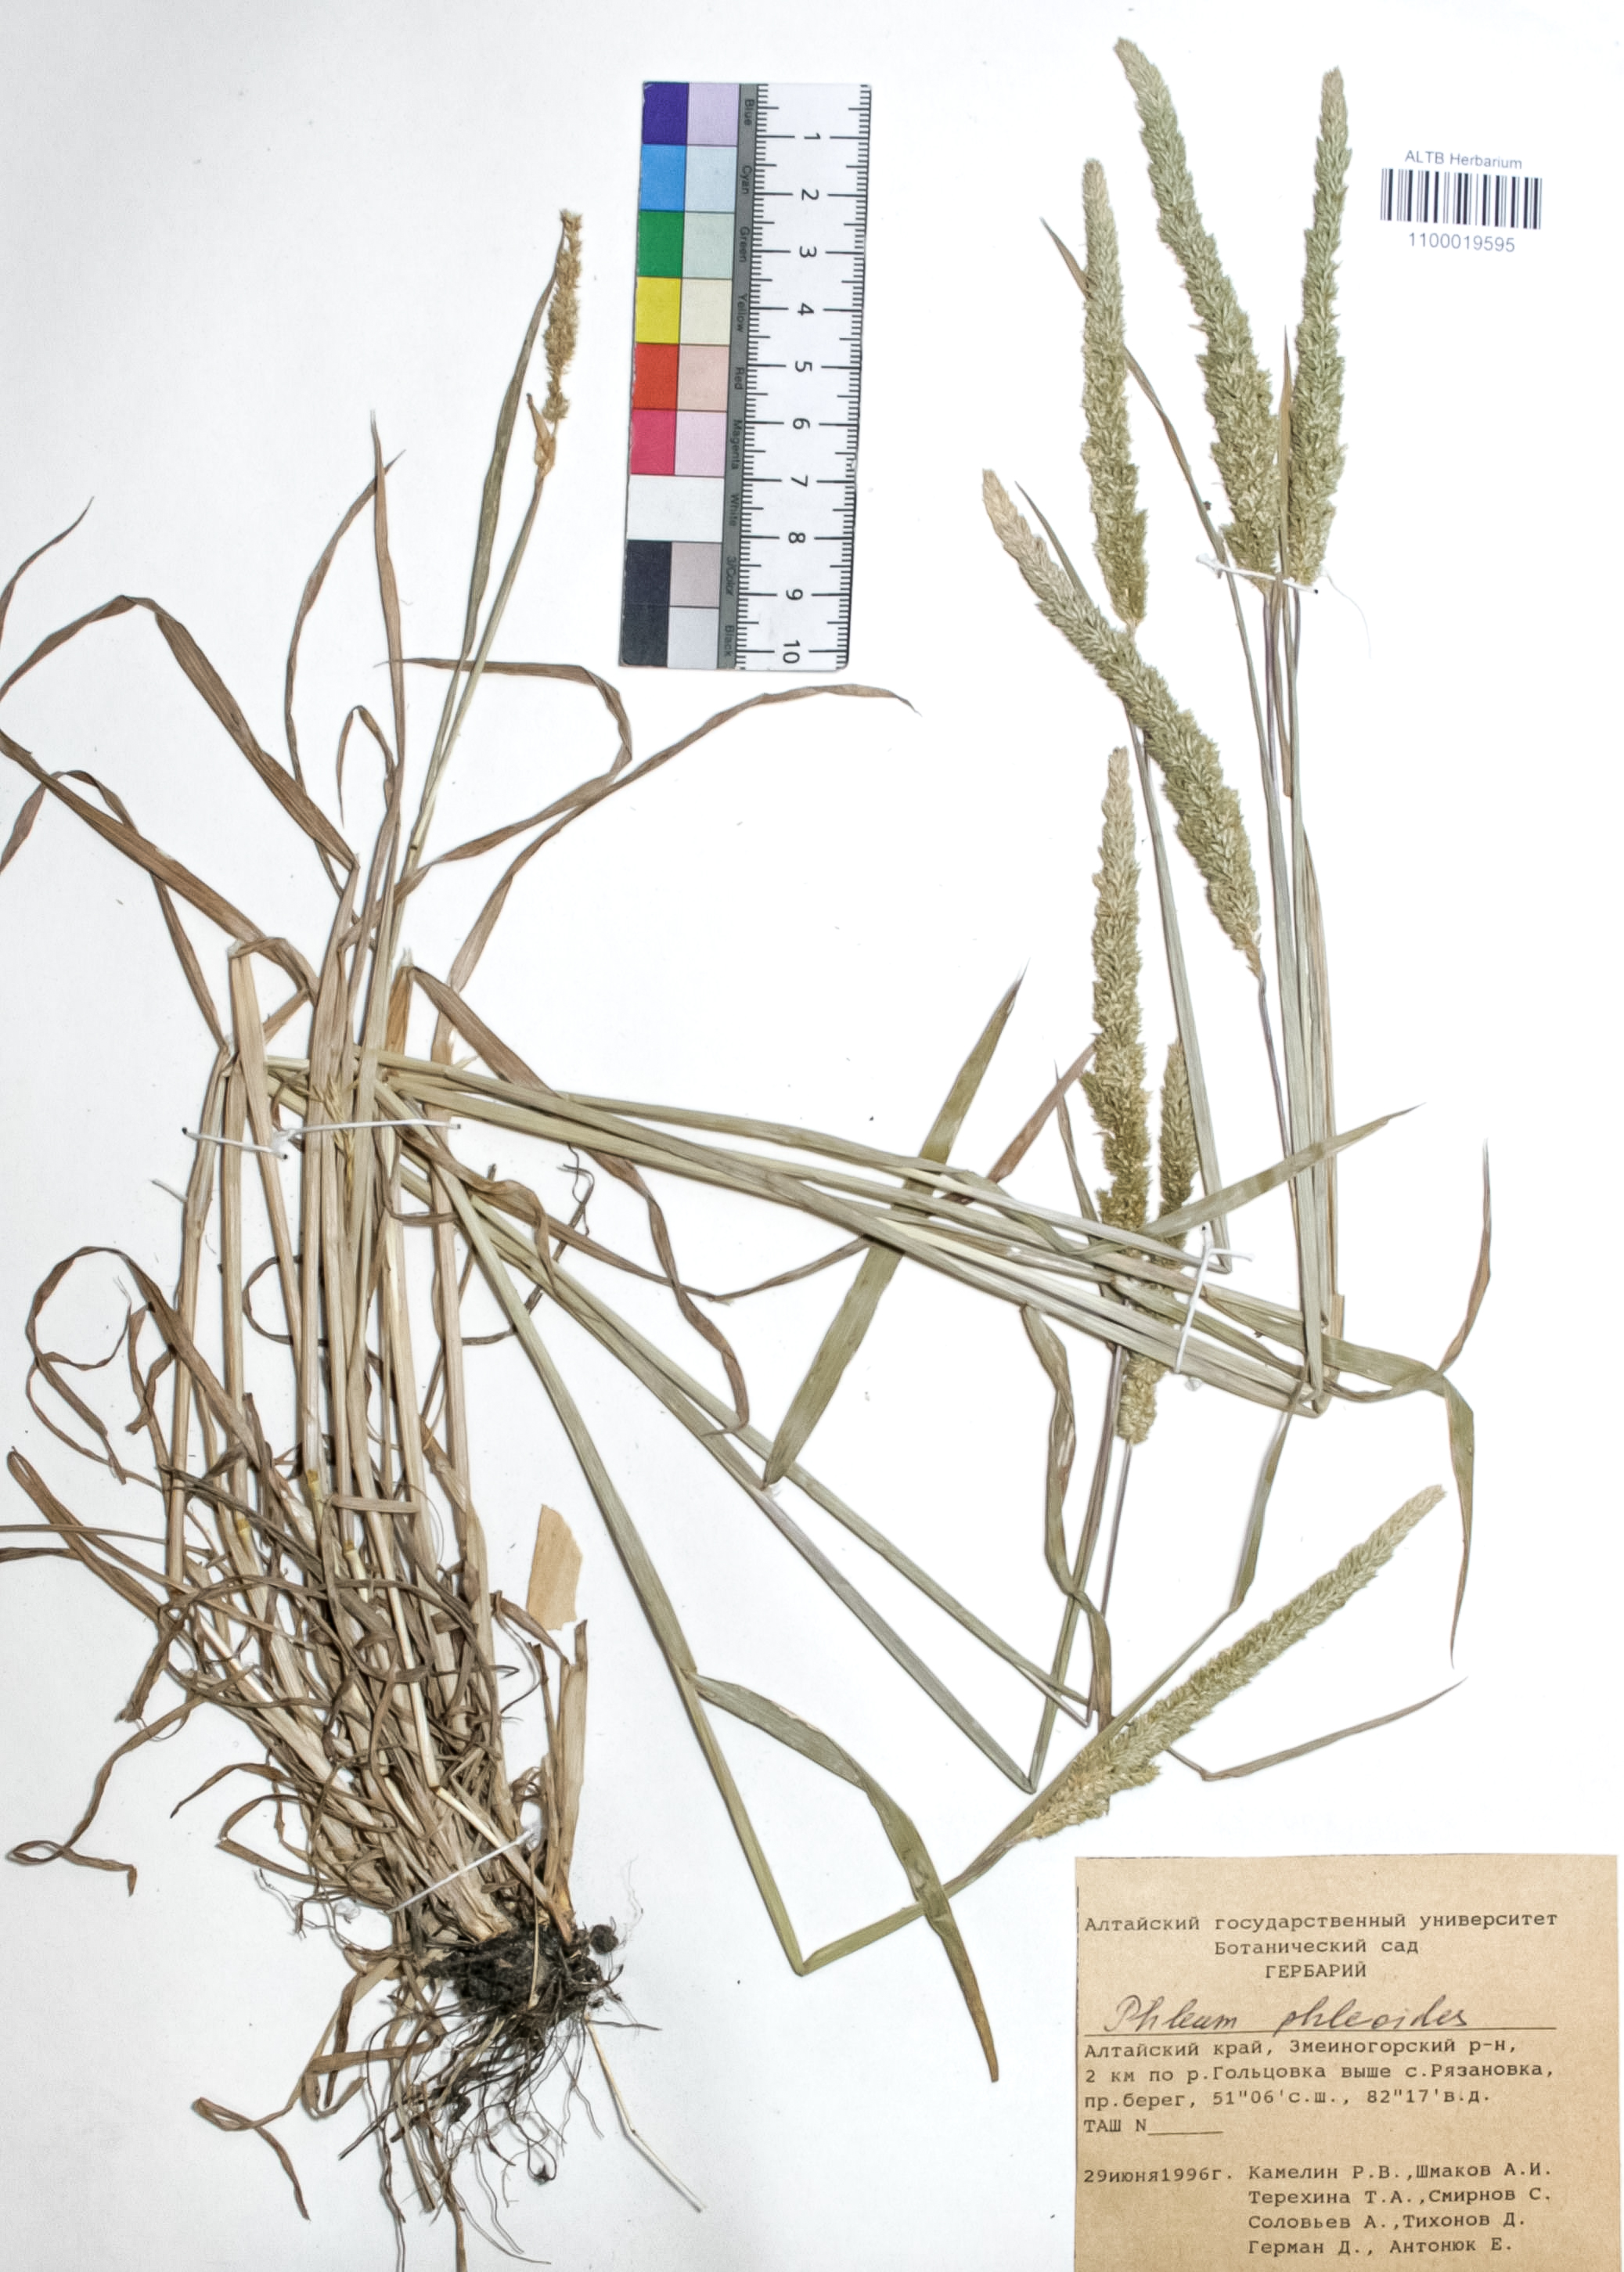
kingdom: Plantae
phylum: Tracheophyta
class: Liliopsida
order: Poales
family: Poaceae
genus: Phleum
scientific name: Phleum phleoides
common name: Purple-stem cat's-tail
